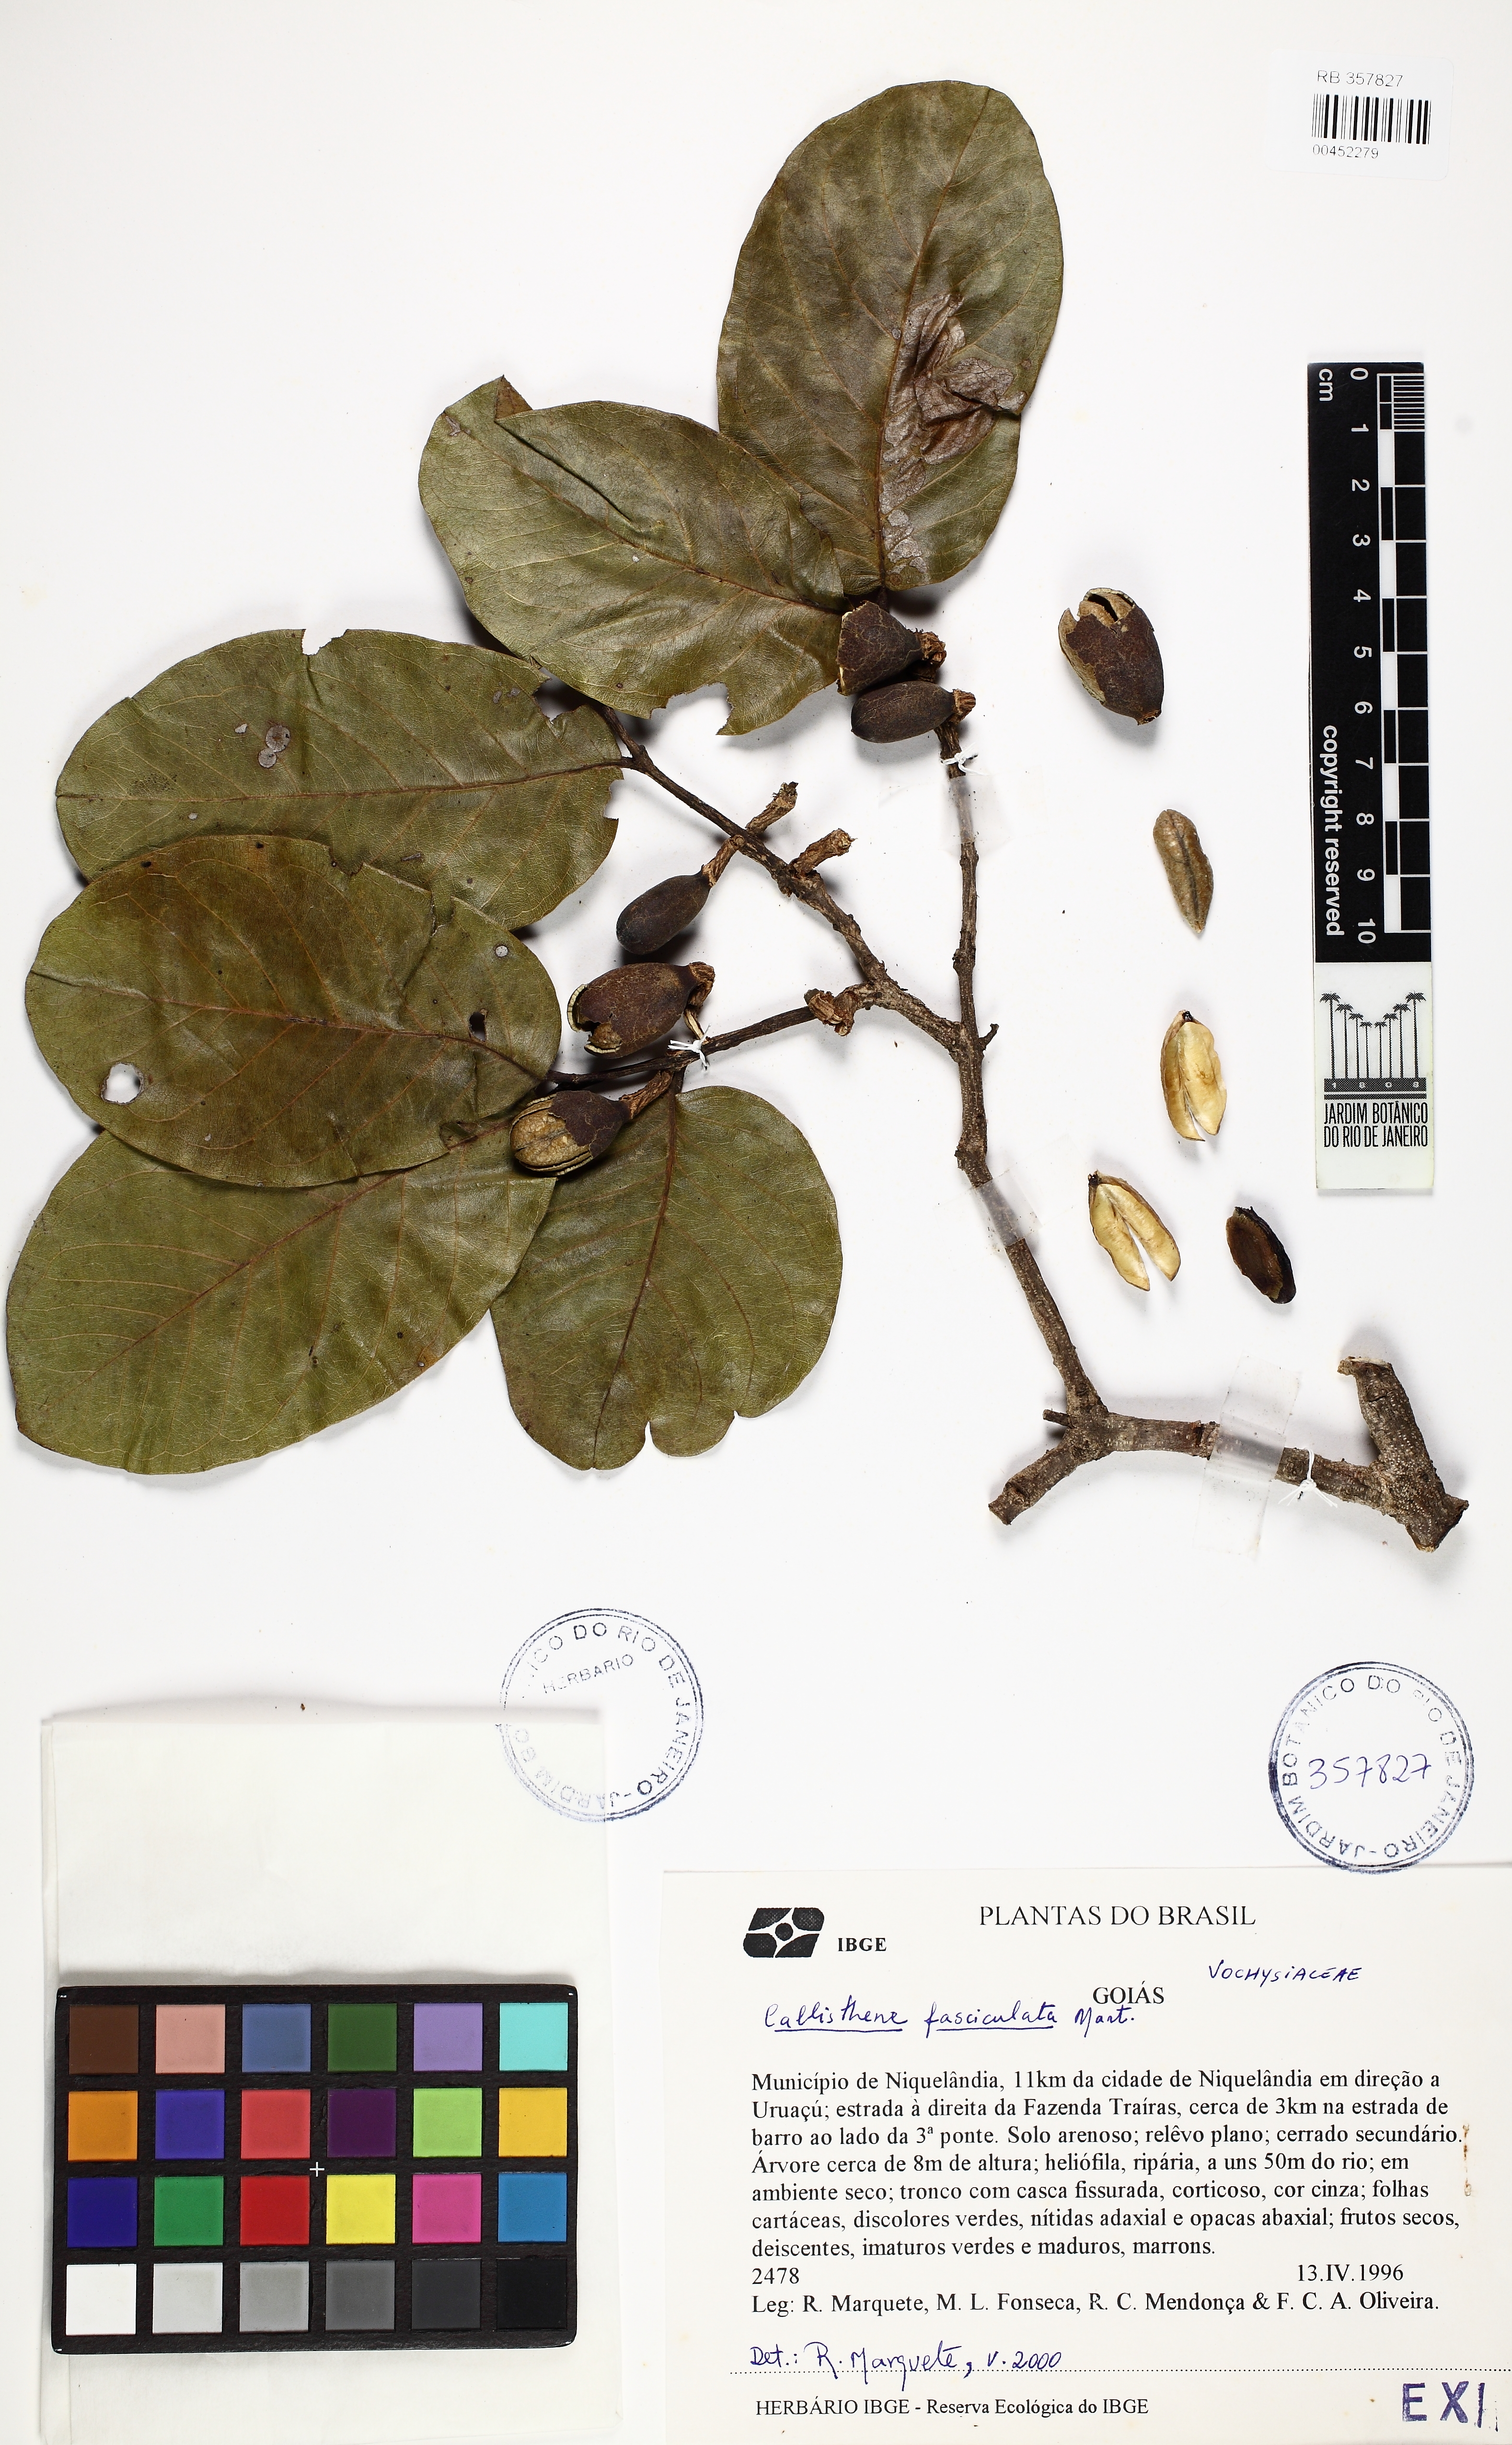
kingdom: Plantae
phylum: Tracheophyta
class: Magnoliopsida
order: Myrtales
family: Vochysiaceae
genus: Callisthene
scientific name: Callisthene fasciculata
